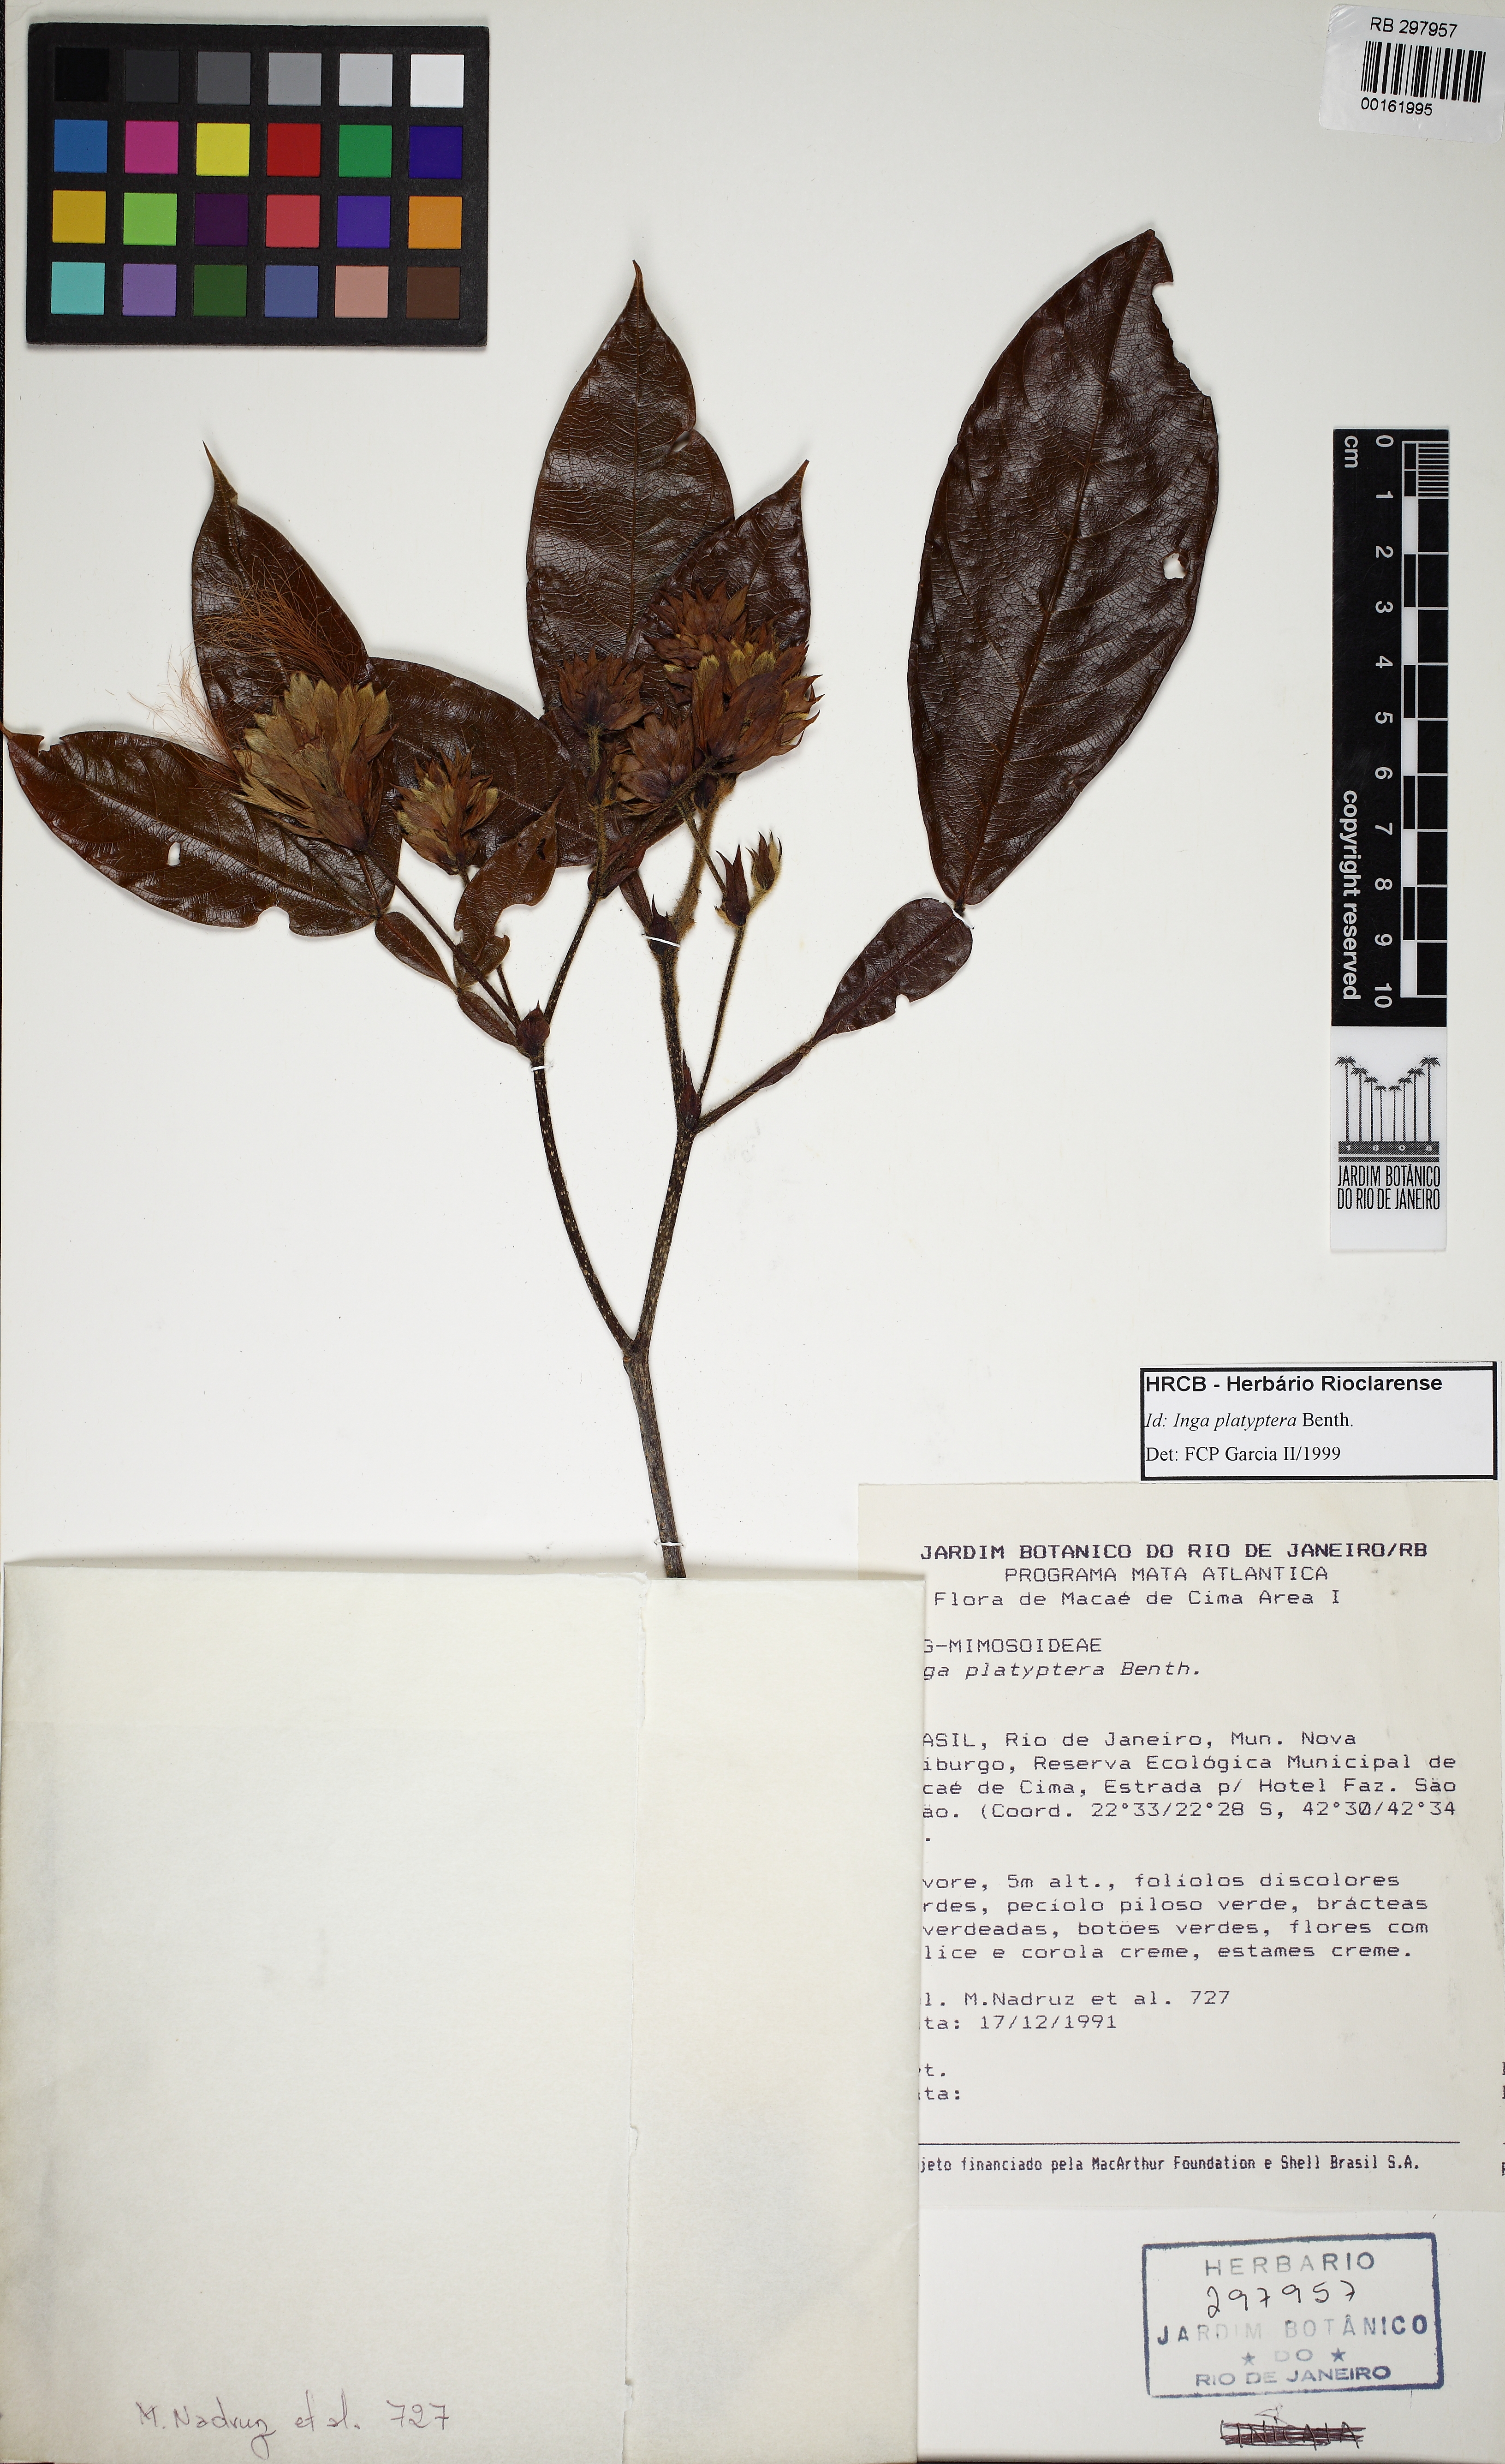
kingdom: Plantae
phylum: Tracheophyta
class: Magnoliopsida
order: Fabales
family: Fabaceae
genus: Inga
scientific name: Inga platyptera
